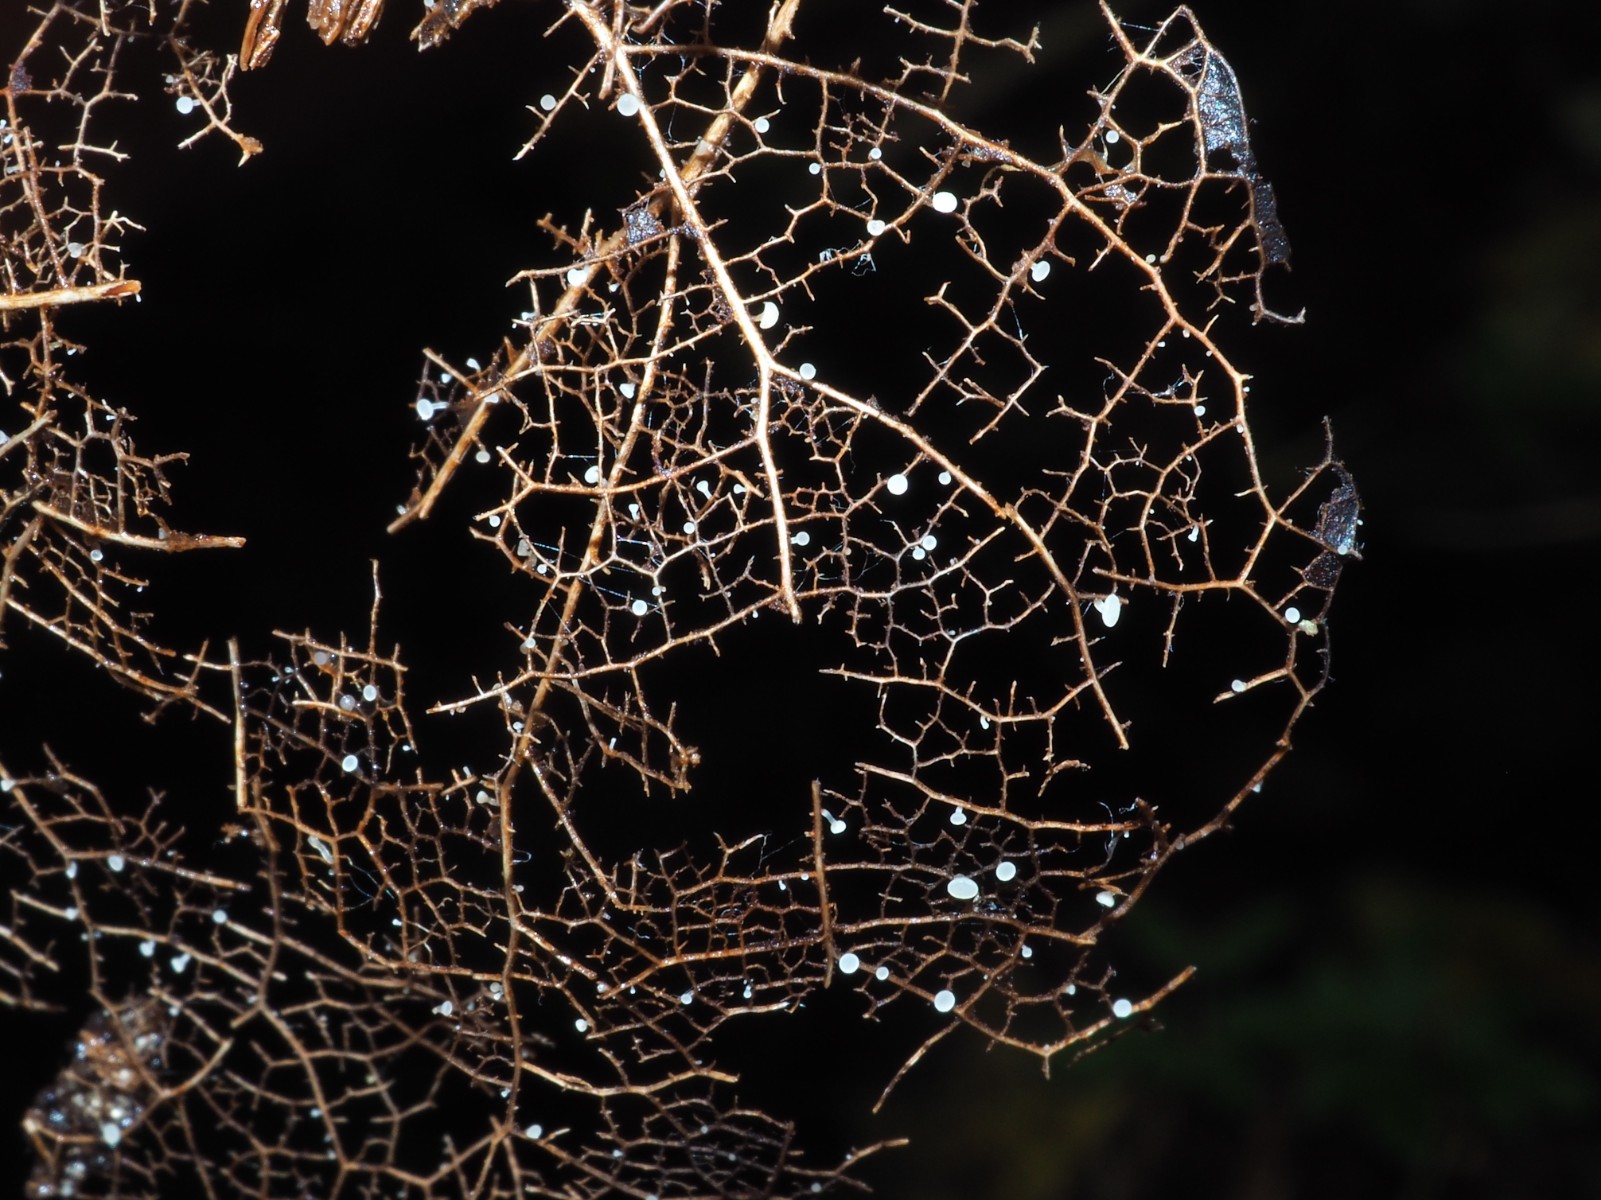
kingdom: Fungi
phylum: Ascomycota
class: Leotiomycetes
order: Helotiales
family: Helotiaceae
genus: Hymenoscyphus
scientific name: Hymenoscyphus fraxineus
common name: asketoptørre-stilkskive
